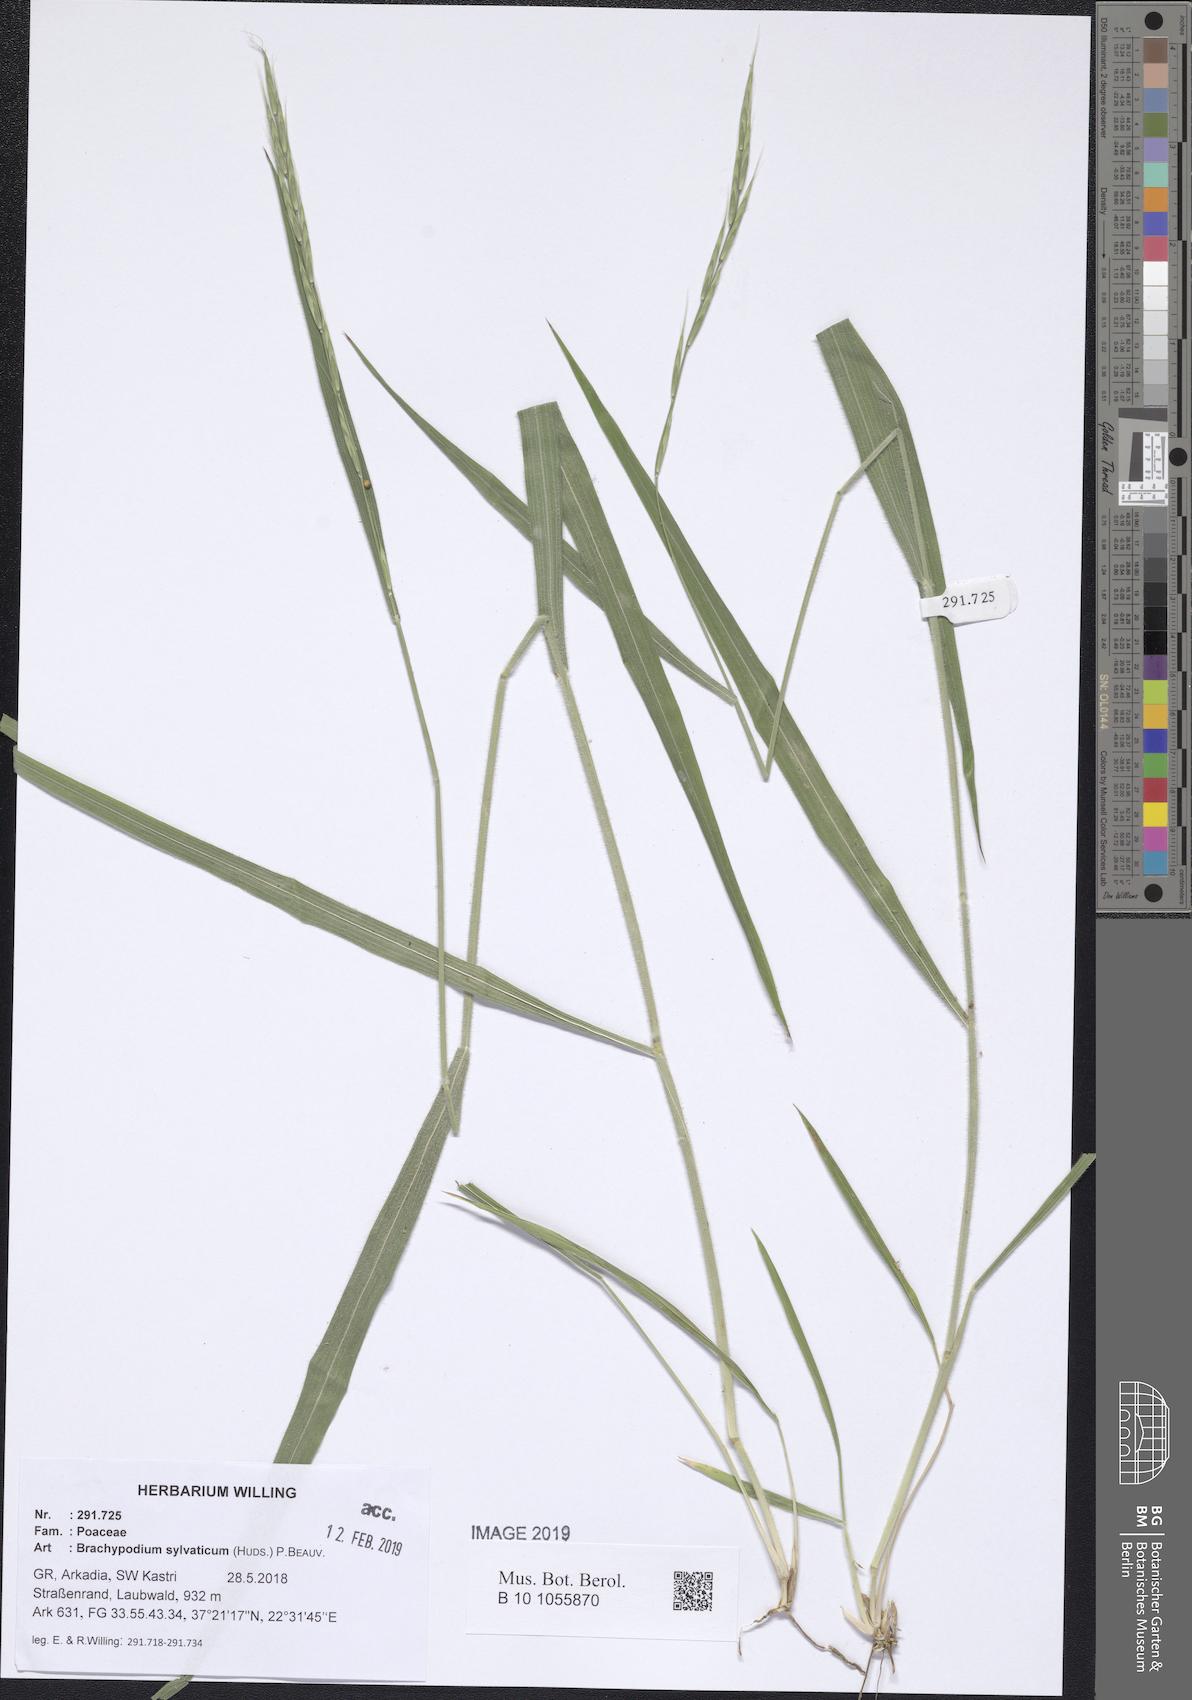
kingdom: Plantae
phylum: Tracheophyta
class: Liliopsida
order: Poales
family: Poaceae
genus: Brachypodium
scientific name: Brachypodium sylvaticum
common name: False-brome
